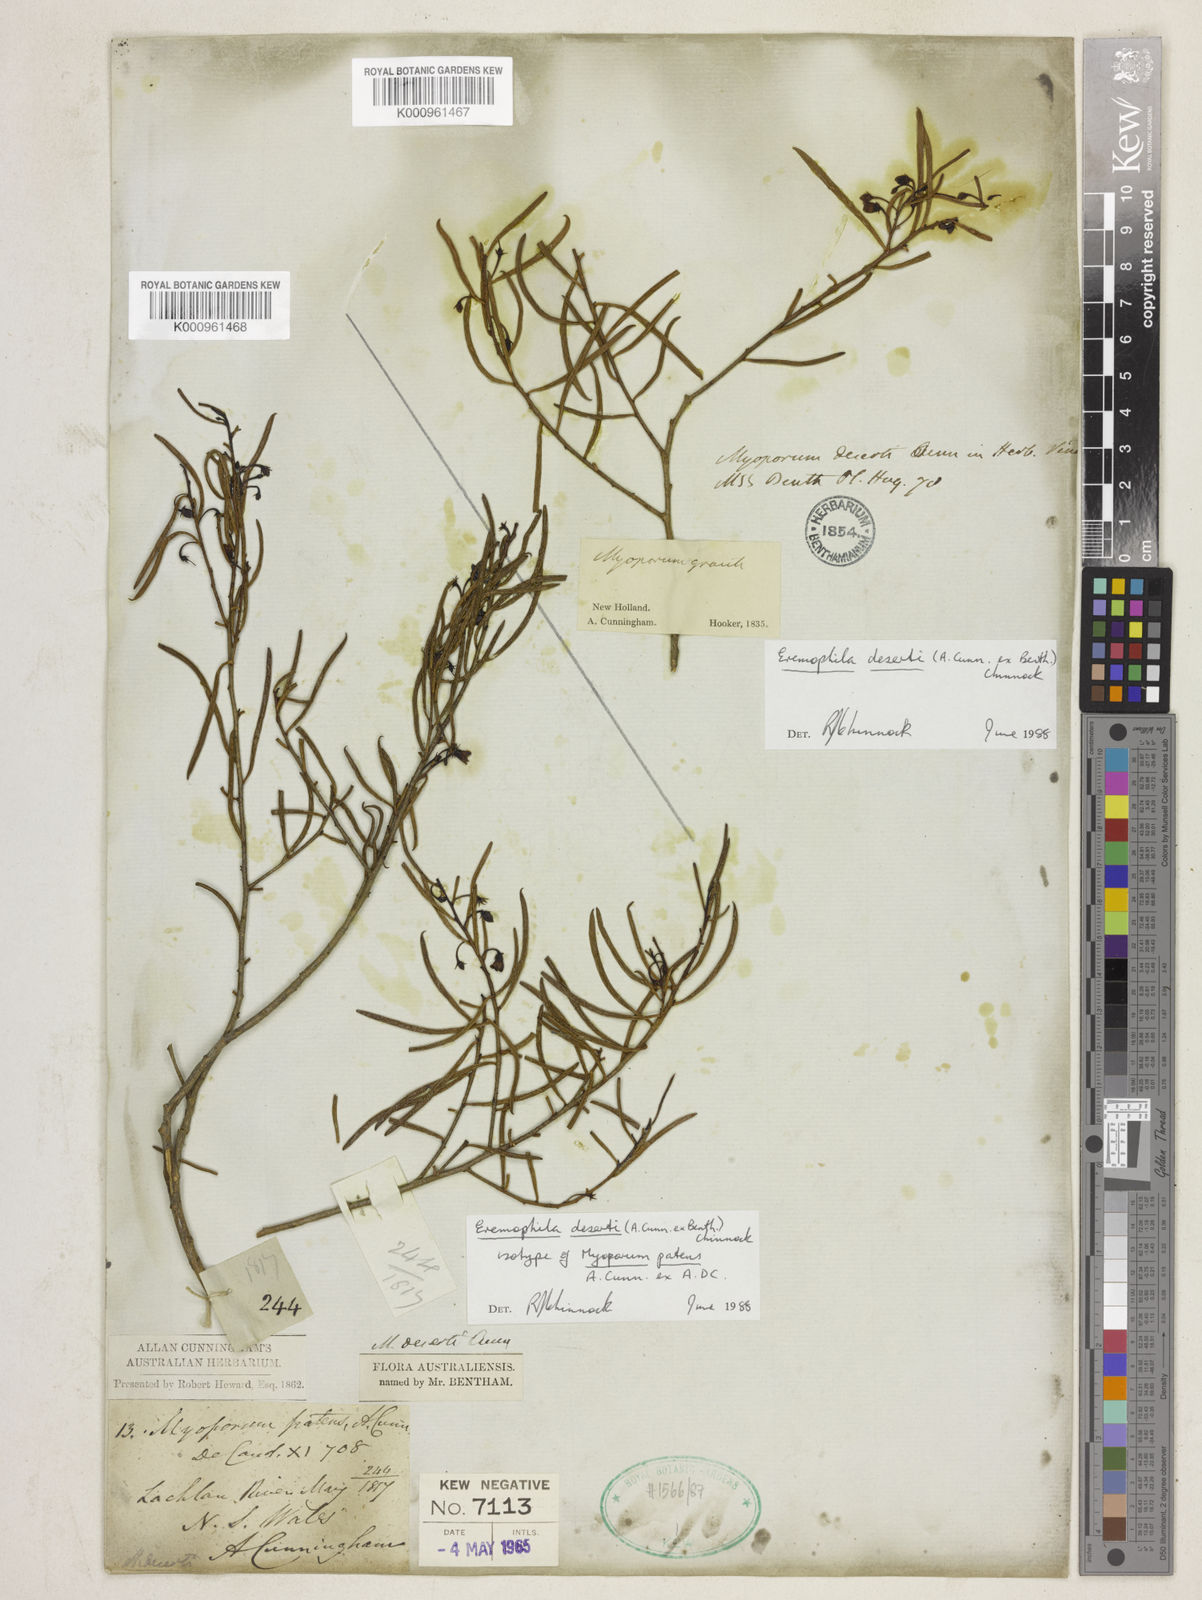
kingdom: Plantae
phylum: Tracheophyta
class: Magnoliopsida
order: Lamiales
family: Scrophulariaceae
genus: Eremophila
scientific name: Eremophila deserti
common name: Ellangowan-poisonbush
